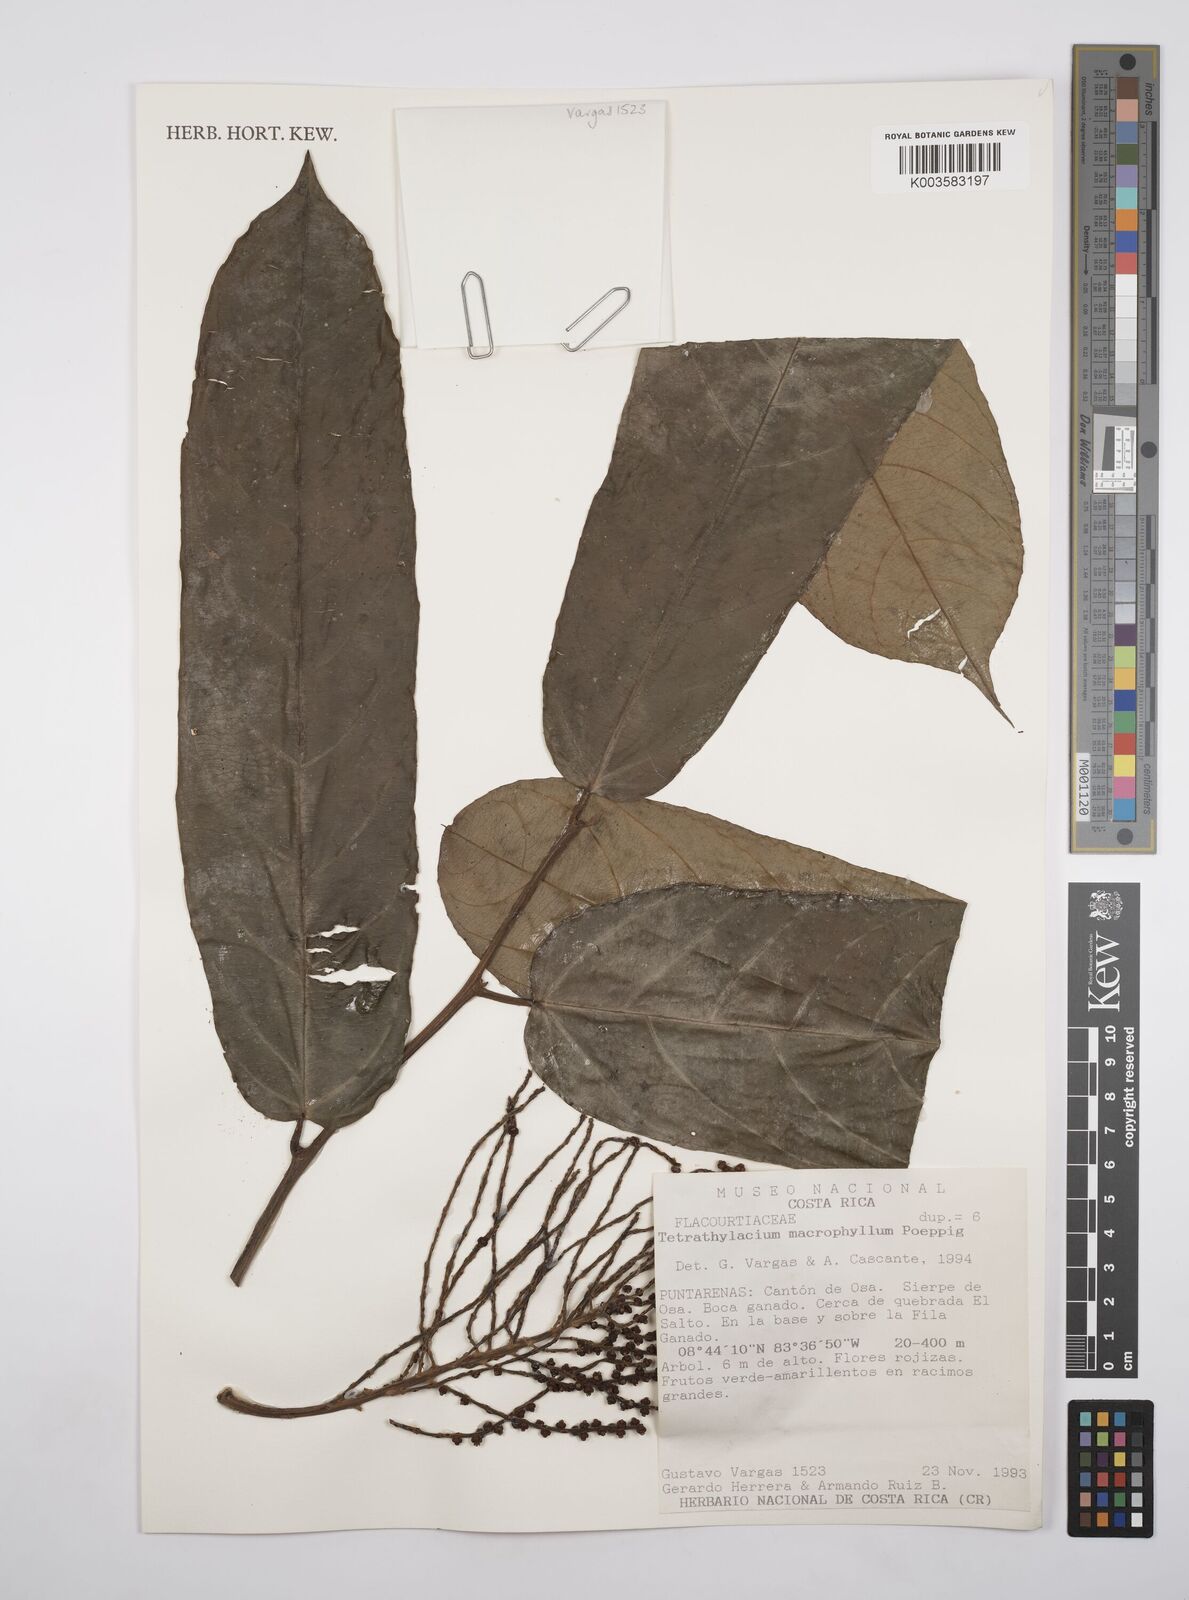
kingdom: Plantae
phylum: Tracheophyta
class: Magnoliopsida
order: Malpighiales
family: Salicaceae
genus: Tetrathylacium
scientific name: Tetrathylacium macrophyllum
